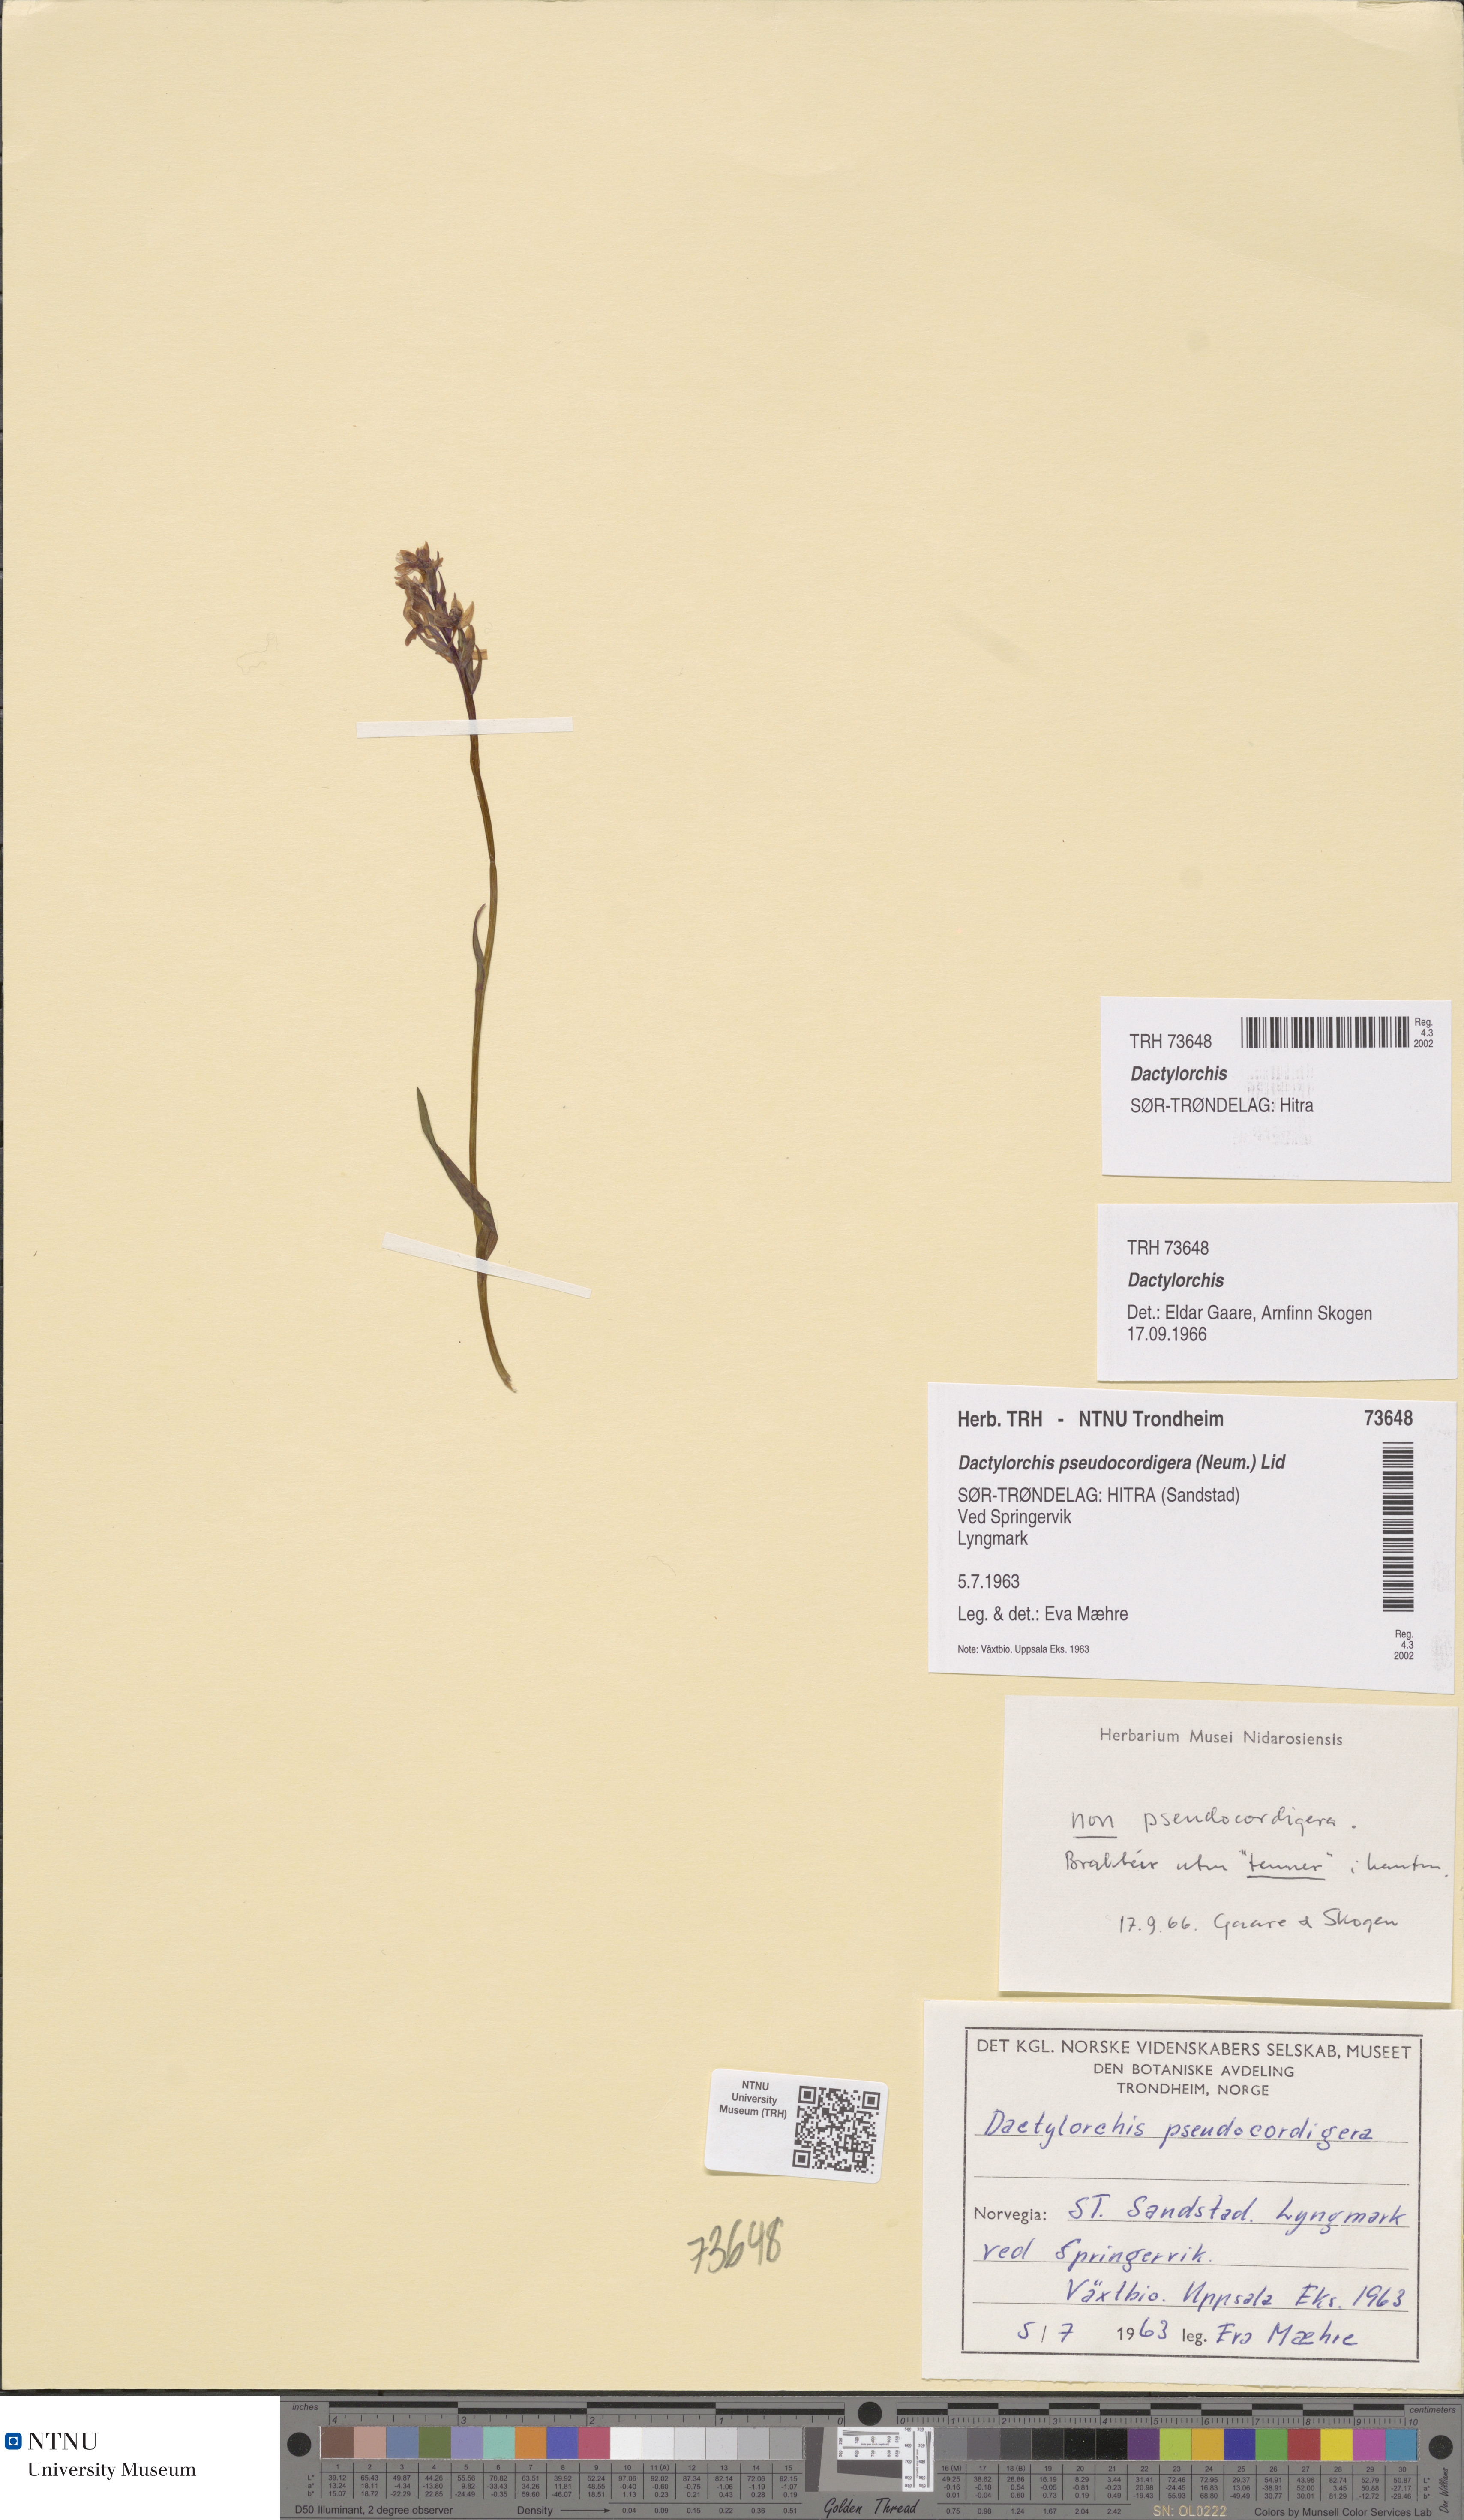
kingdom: Plantae
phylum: Tracheophyta
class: Liliopsida
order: Asparagales
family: Orchidaceae
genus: Dactylorhiza
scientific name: Dactylorhiza
